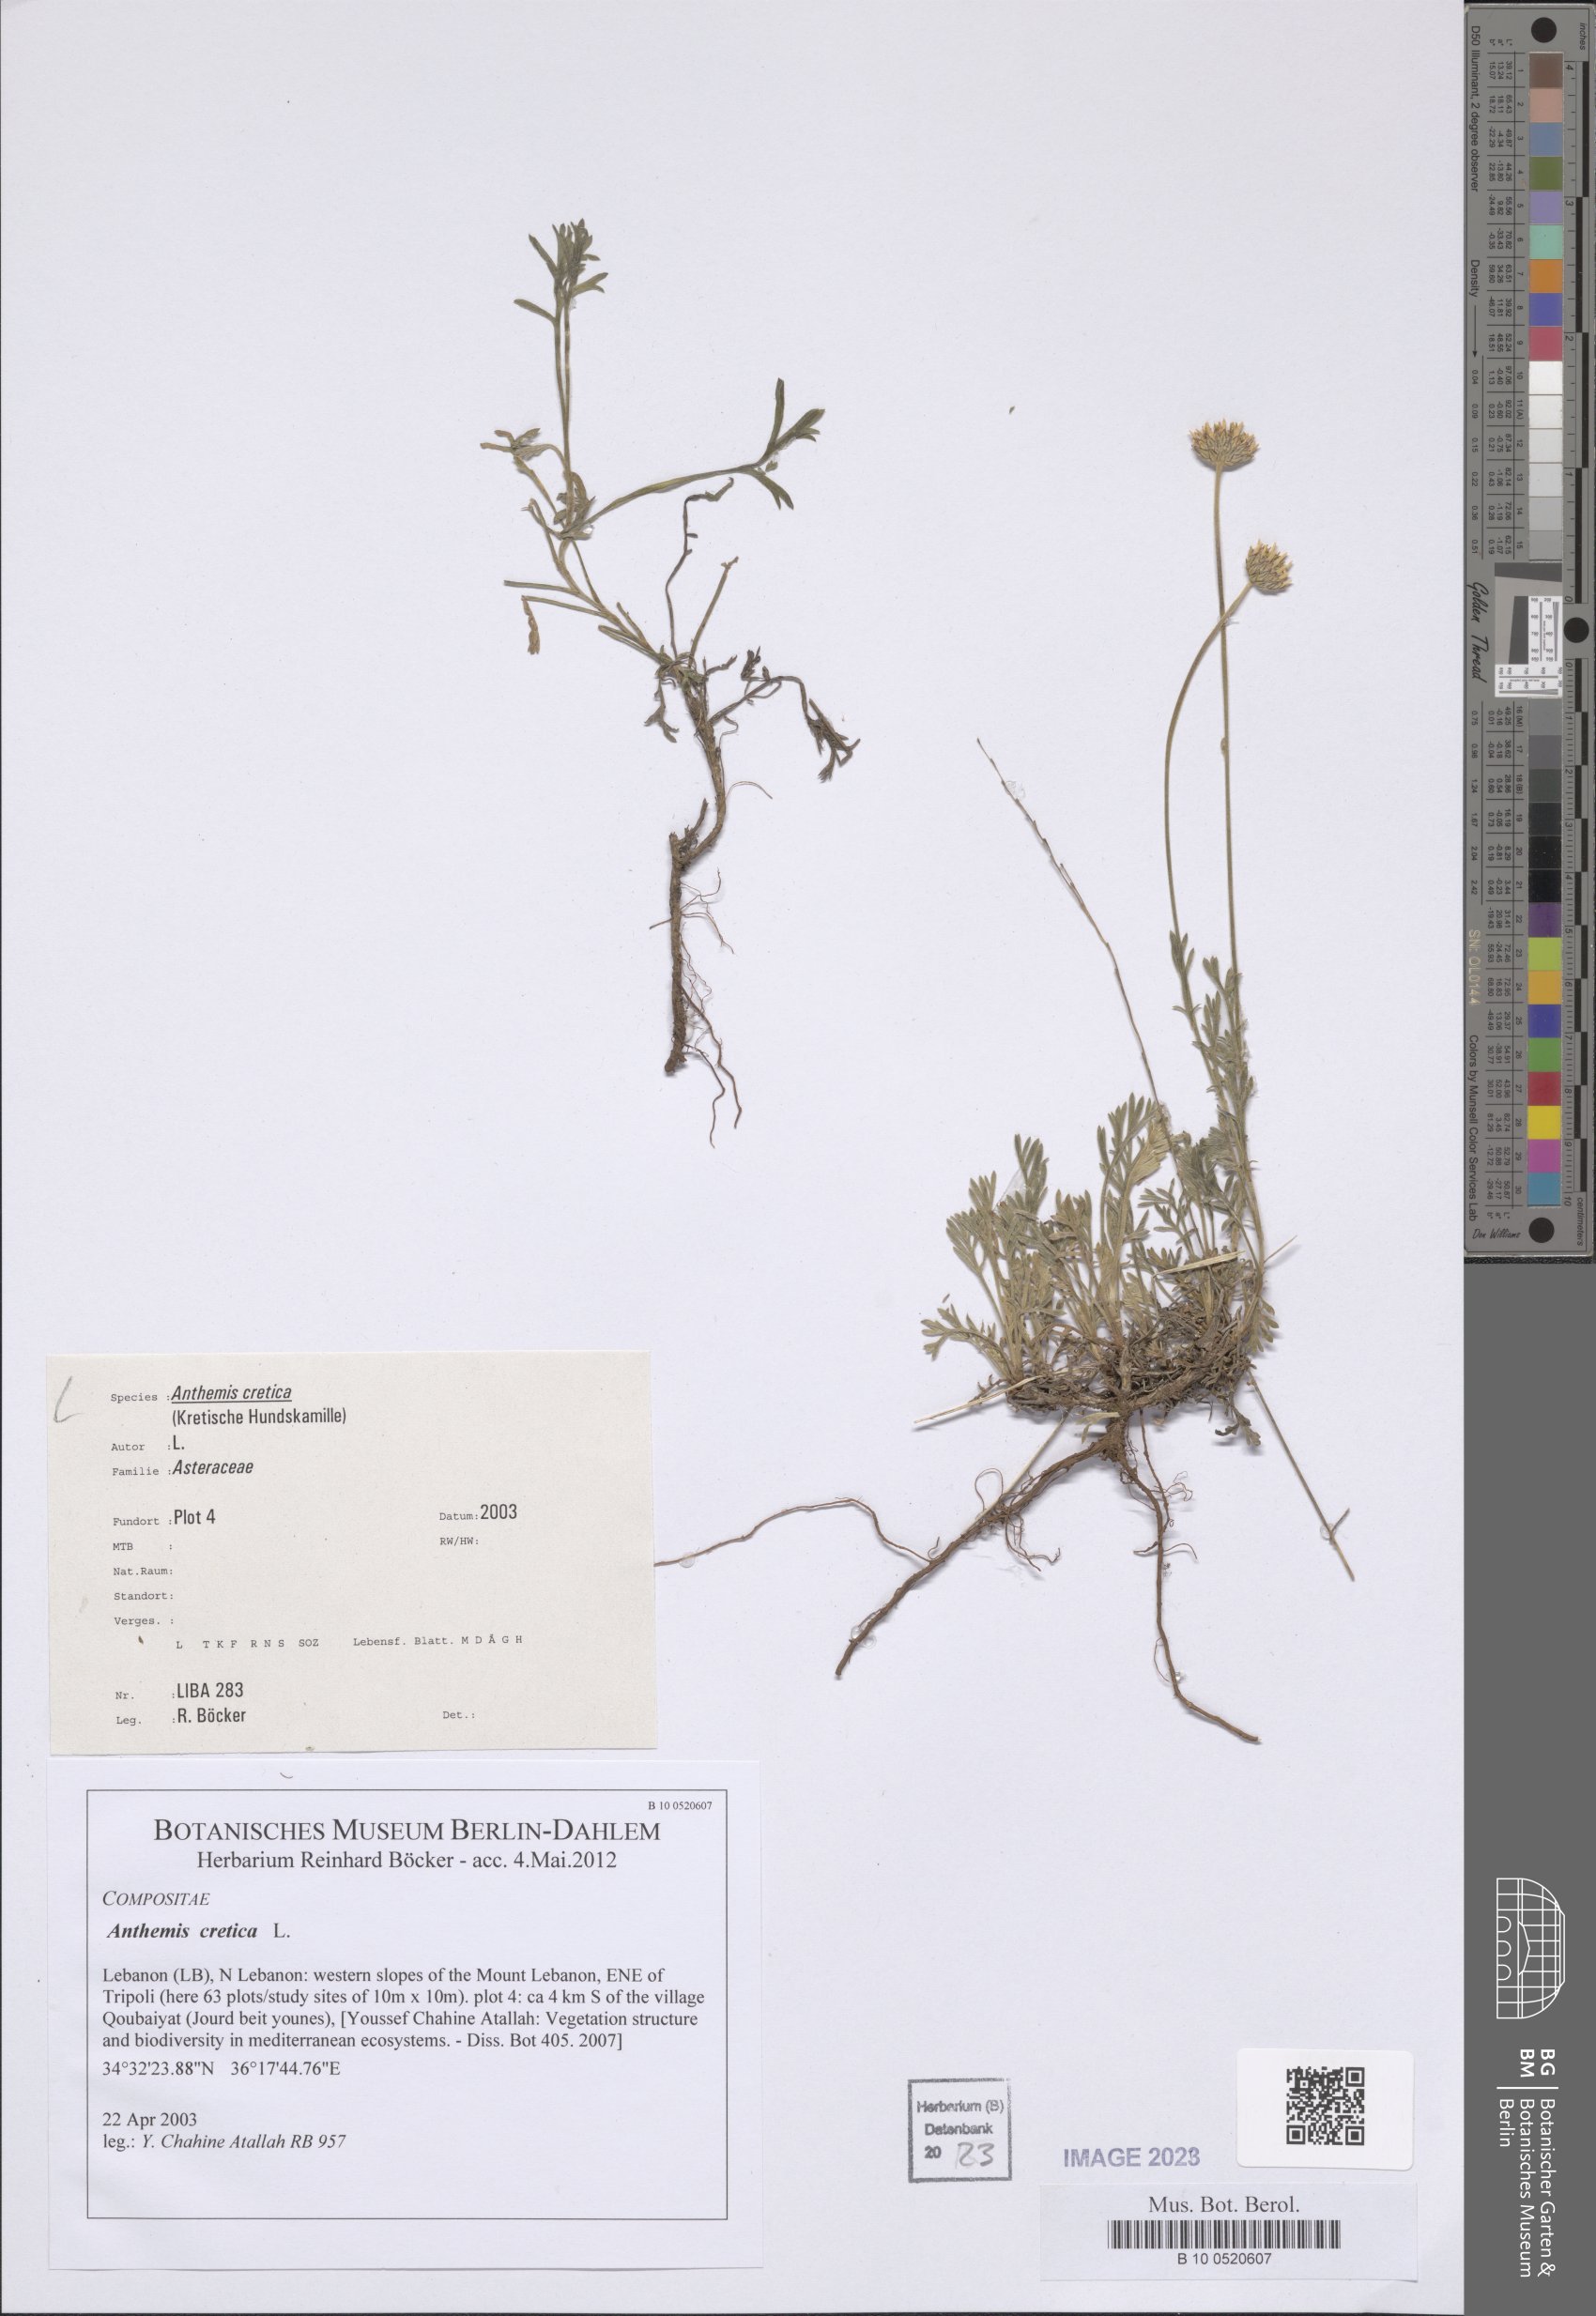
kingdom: Plantae
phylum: Tracheophyta
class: Magnoliopsida
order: Asterales
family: Asteraceae
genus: Anthemis
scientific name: Anthemis cretica
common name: Mountain dog-daisy
